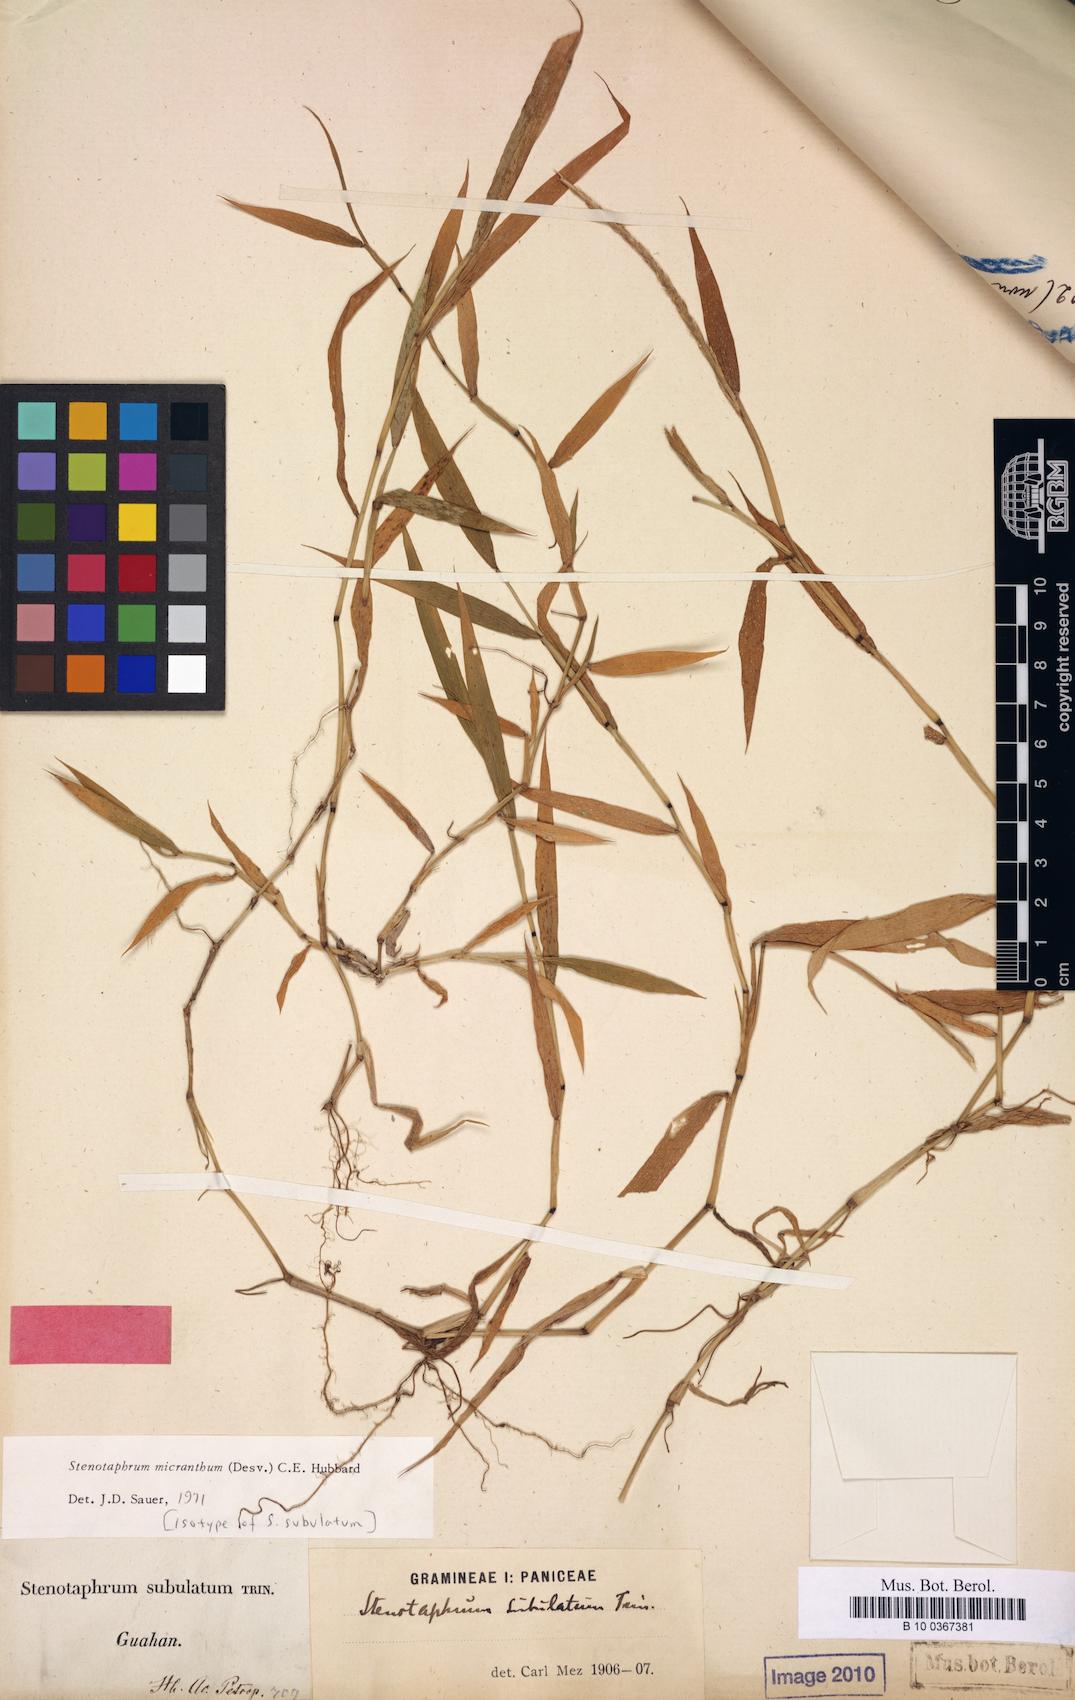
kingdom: Plantae
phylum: Tracheophyta
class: Liliopsida
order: Poales
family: Poaceae
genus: Stenotaphrum
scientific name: Stenotaphrum micranthum
